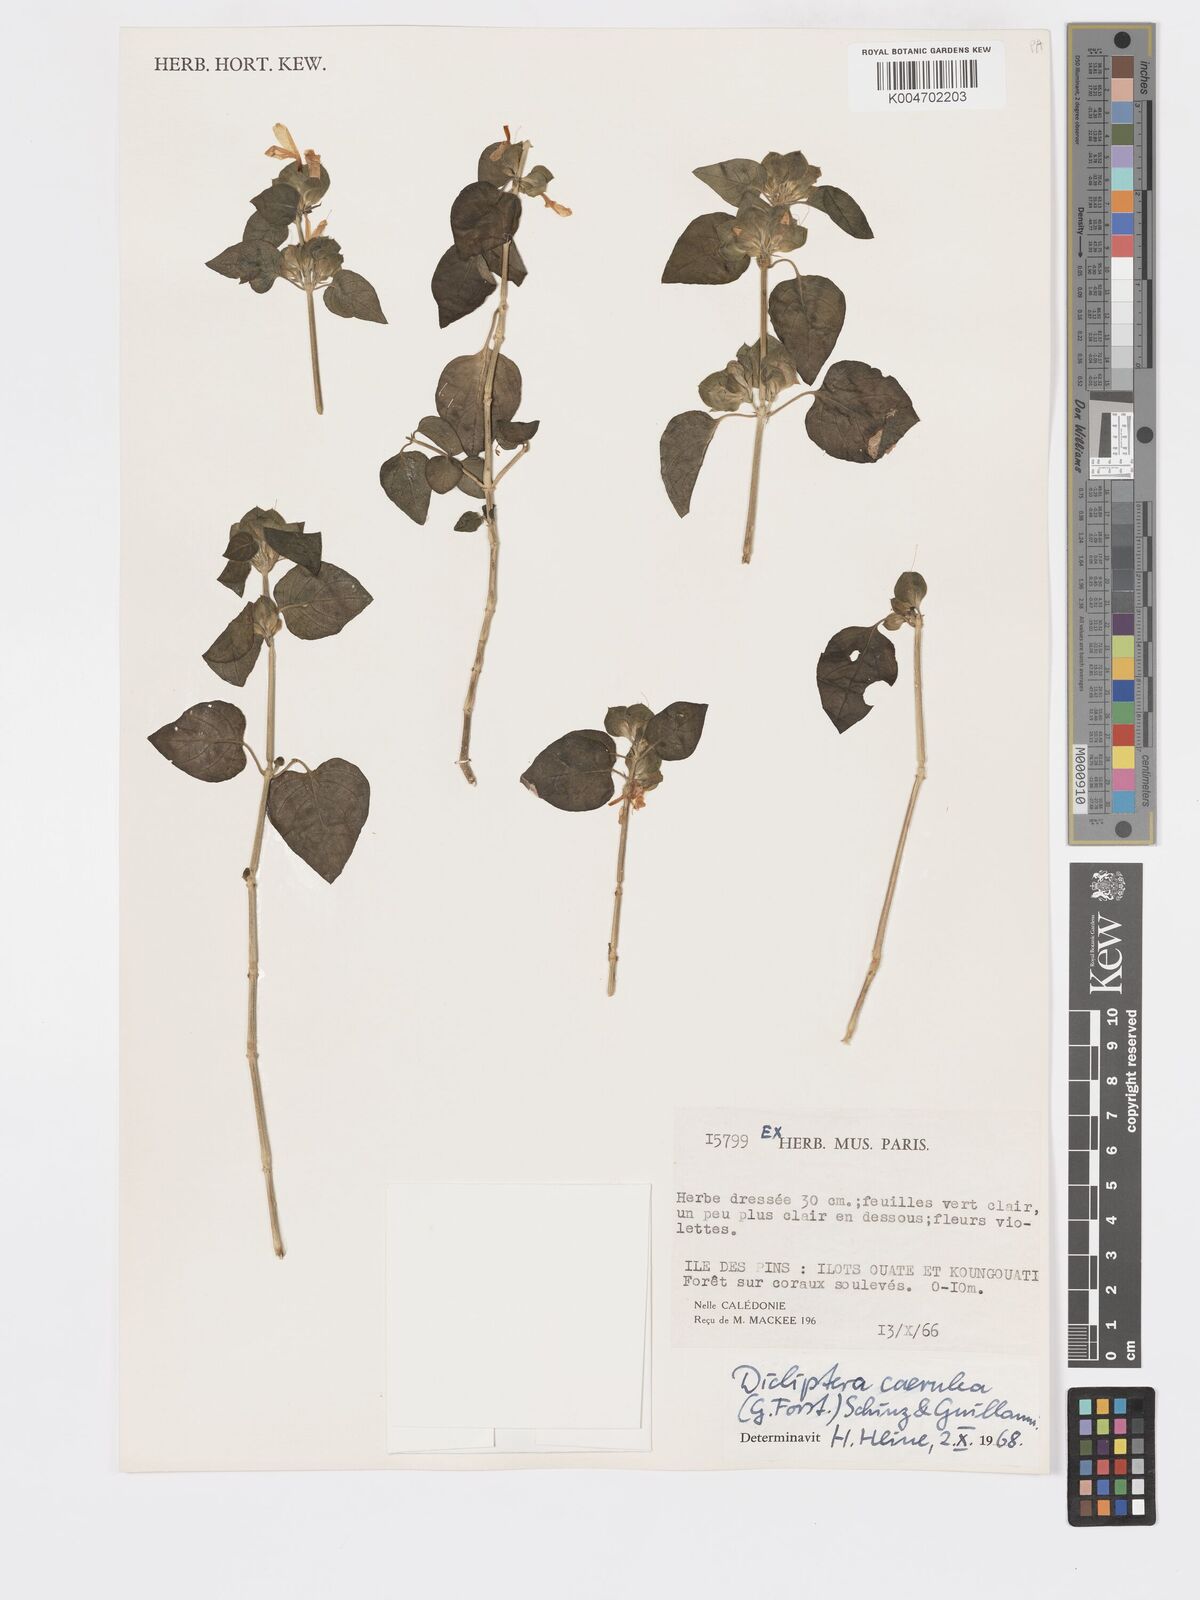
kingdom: Plantae
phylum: Tracheophyta
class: Magnoliopsida
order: Lamiales
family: Acanthaceae
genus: Rungia
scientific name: Rungia parviflora
